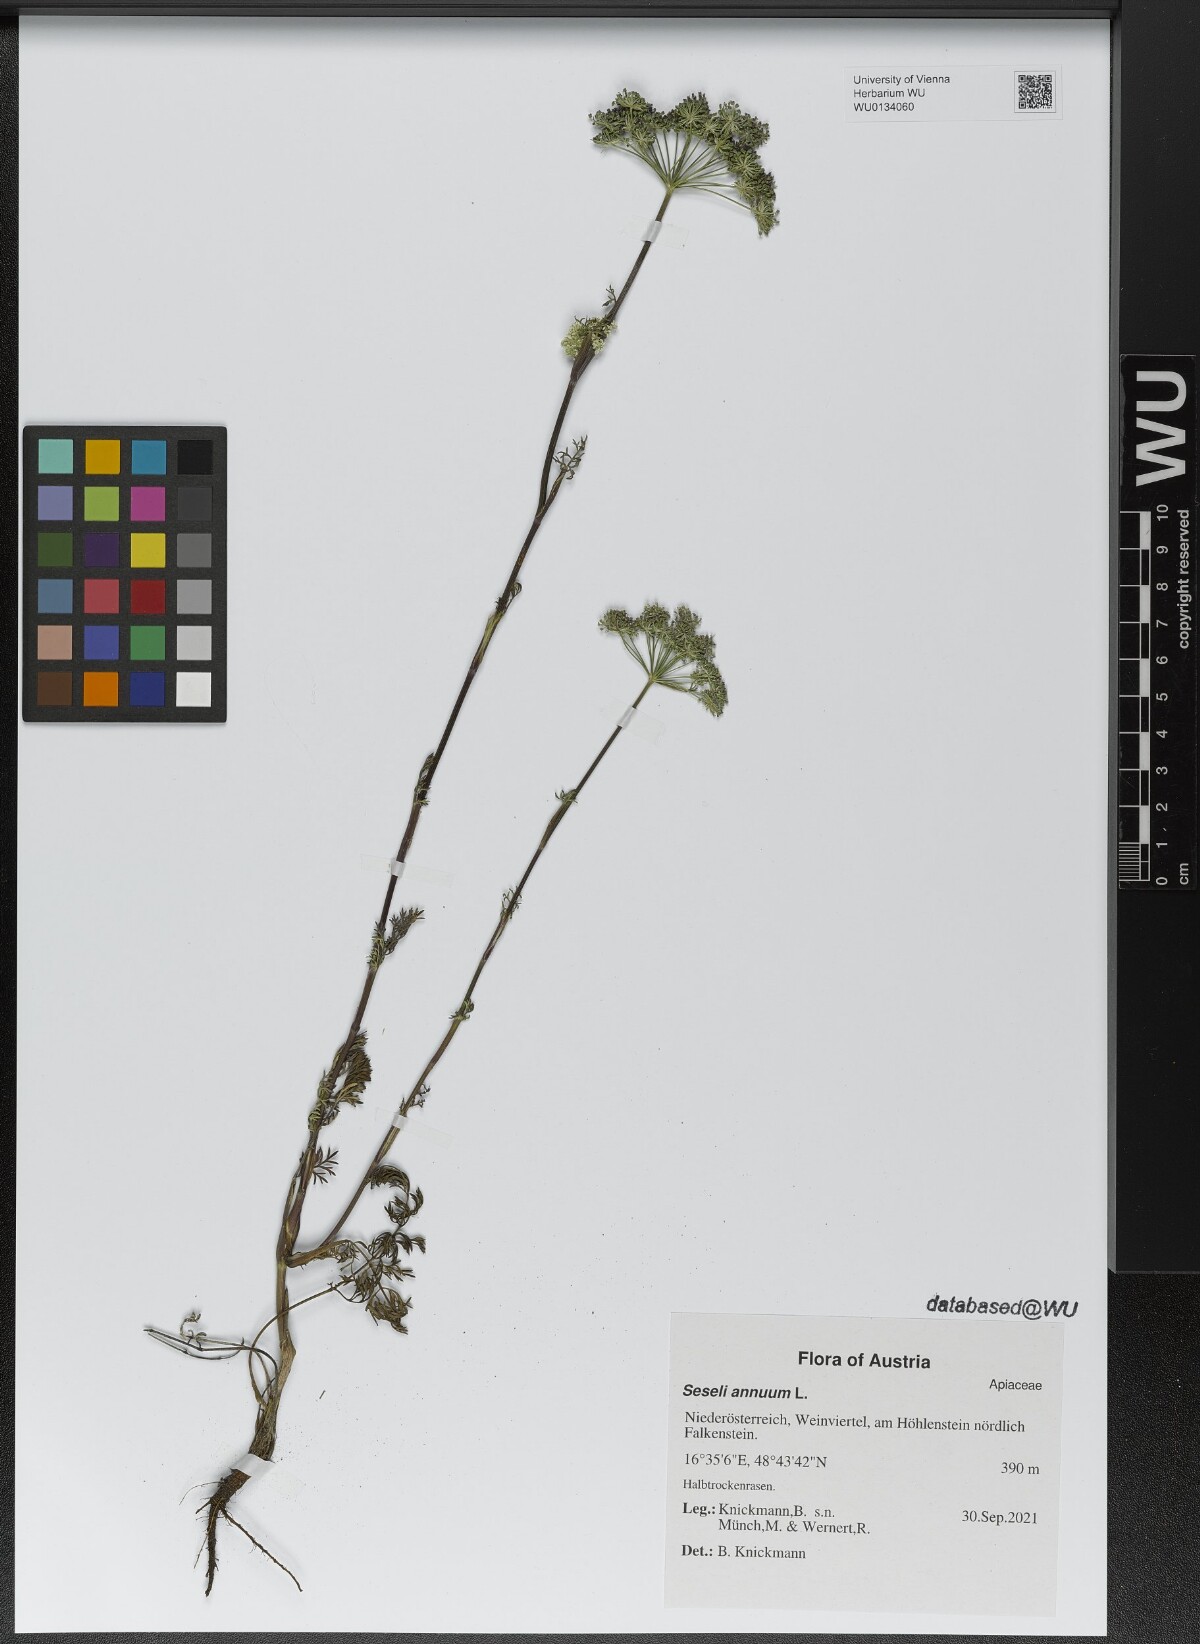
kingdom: Plantae
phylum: Tracheophyta
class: Magnoliopsida
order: Apiales
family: Apiaceae
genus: Seseli
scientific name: Seseli annuum
